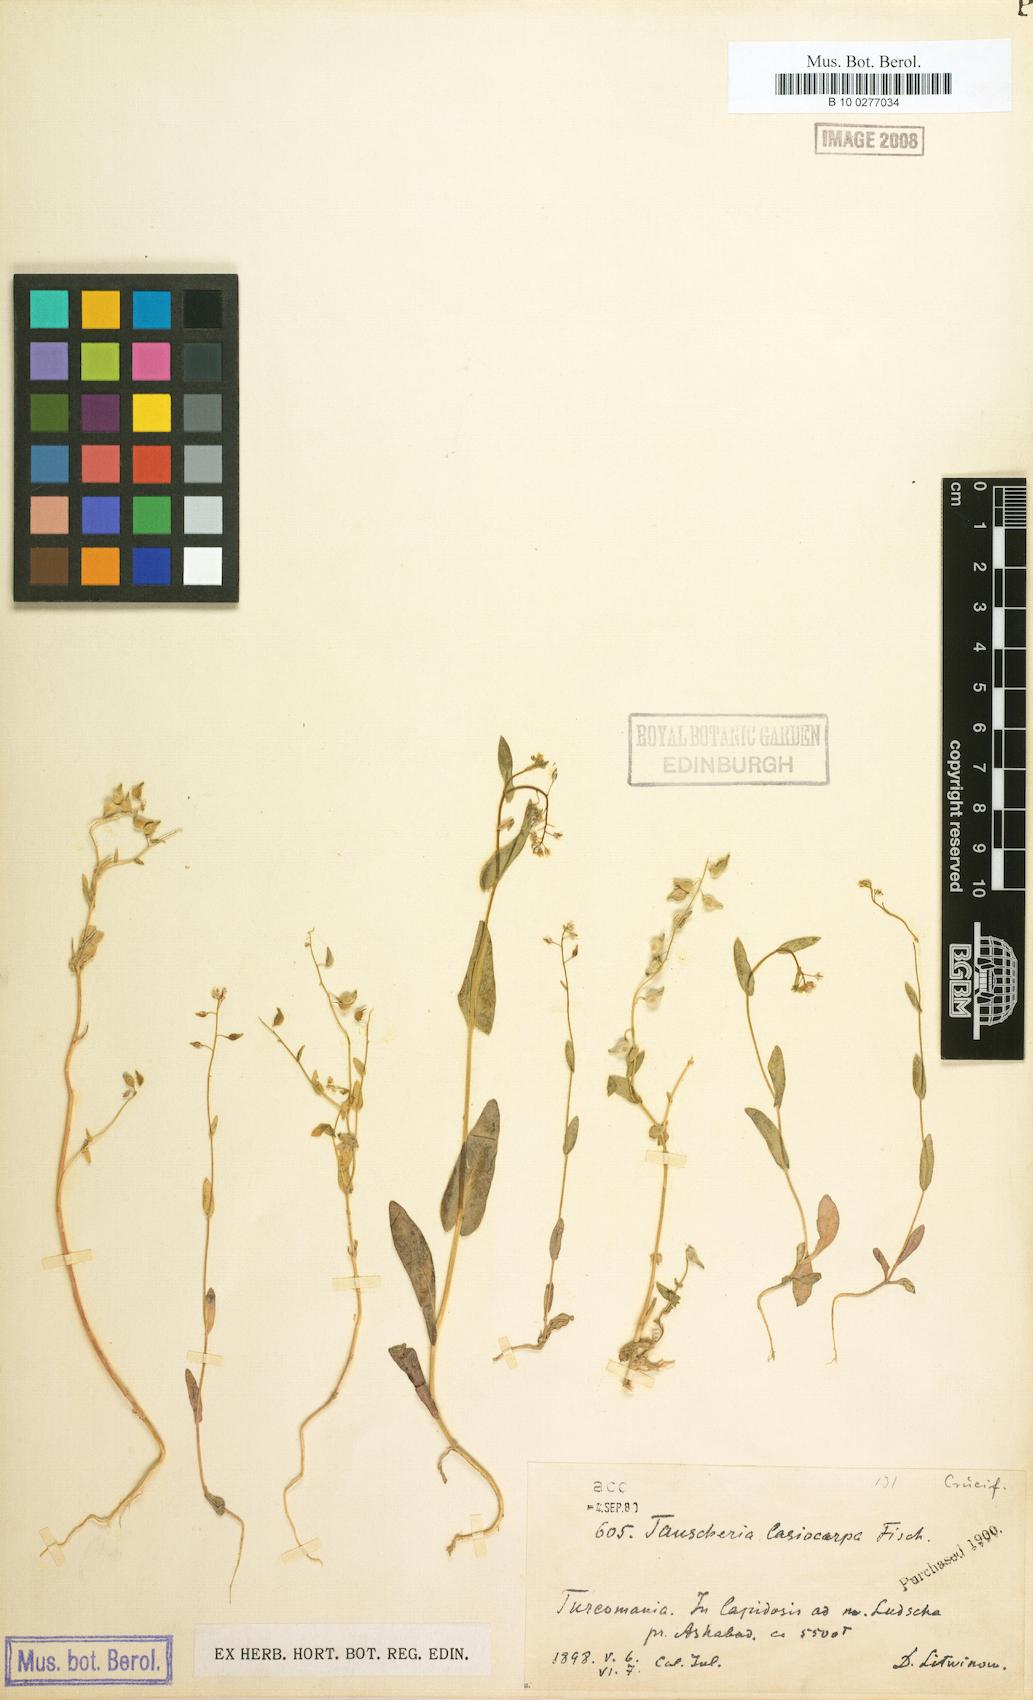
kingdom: Plantae
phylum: Tracheophyta
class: Magnoliopsida
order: Brassicales
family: Brassicaceae
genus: Isatis
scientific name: Isatis gymnocarpa
